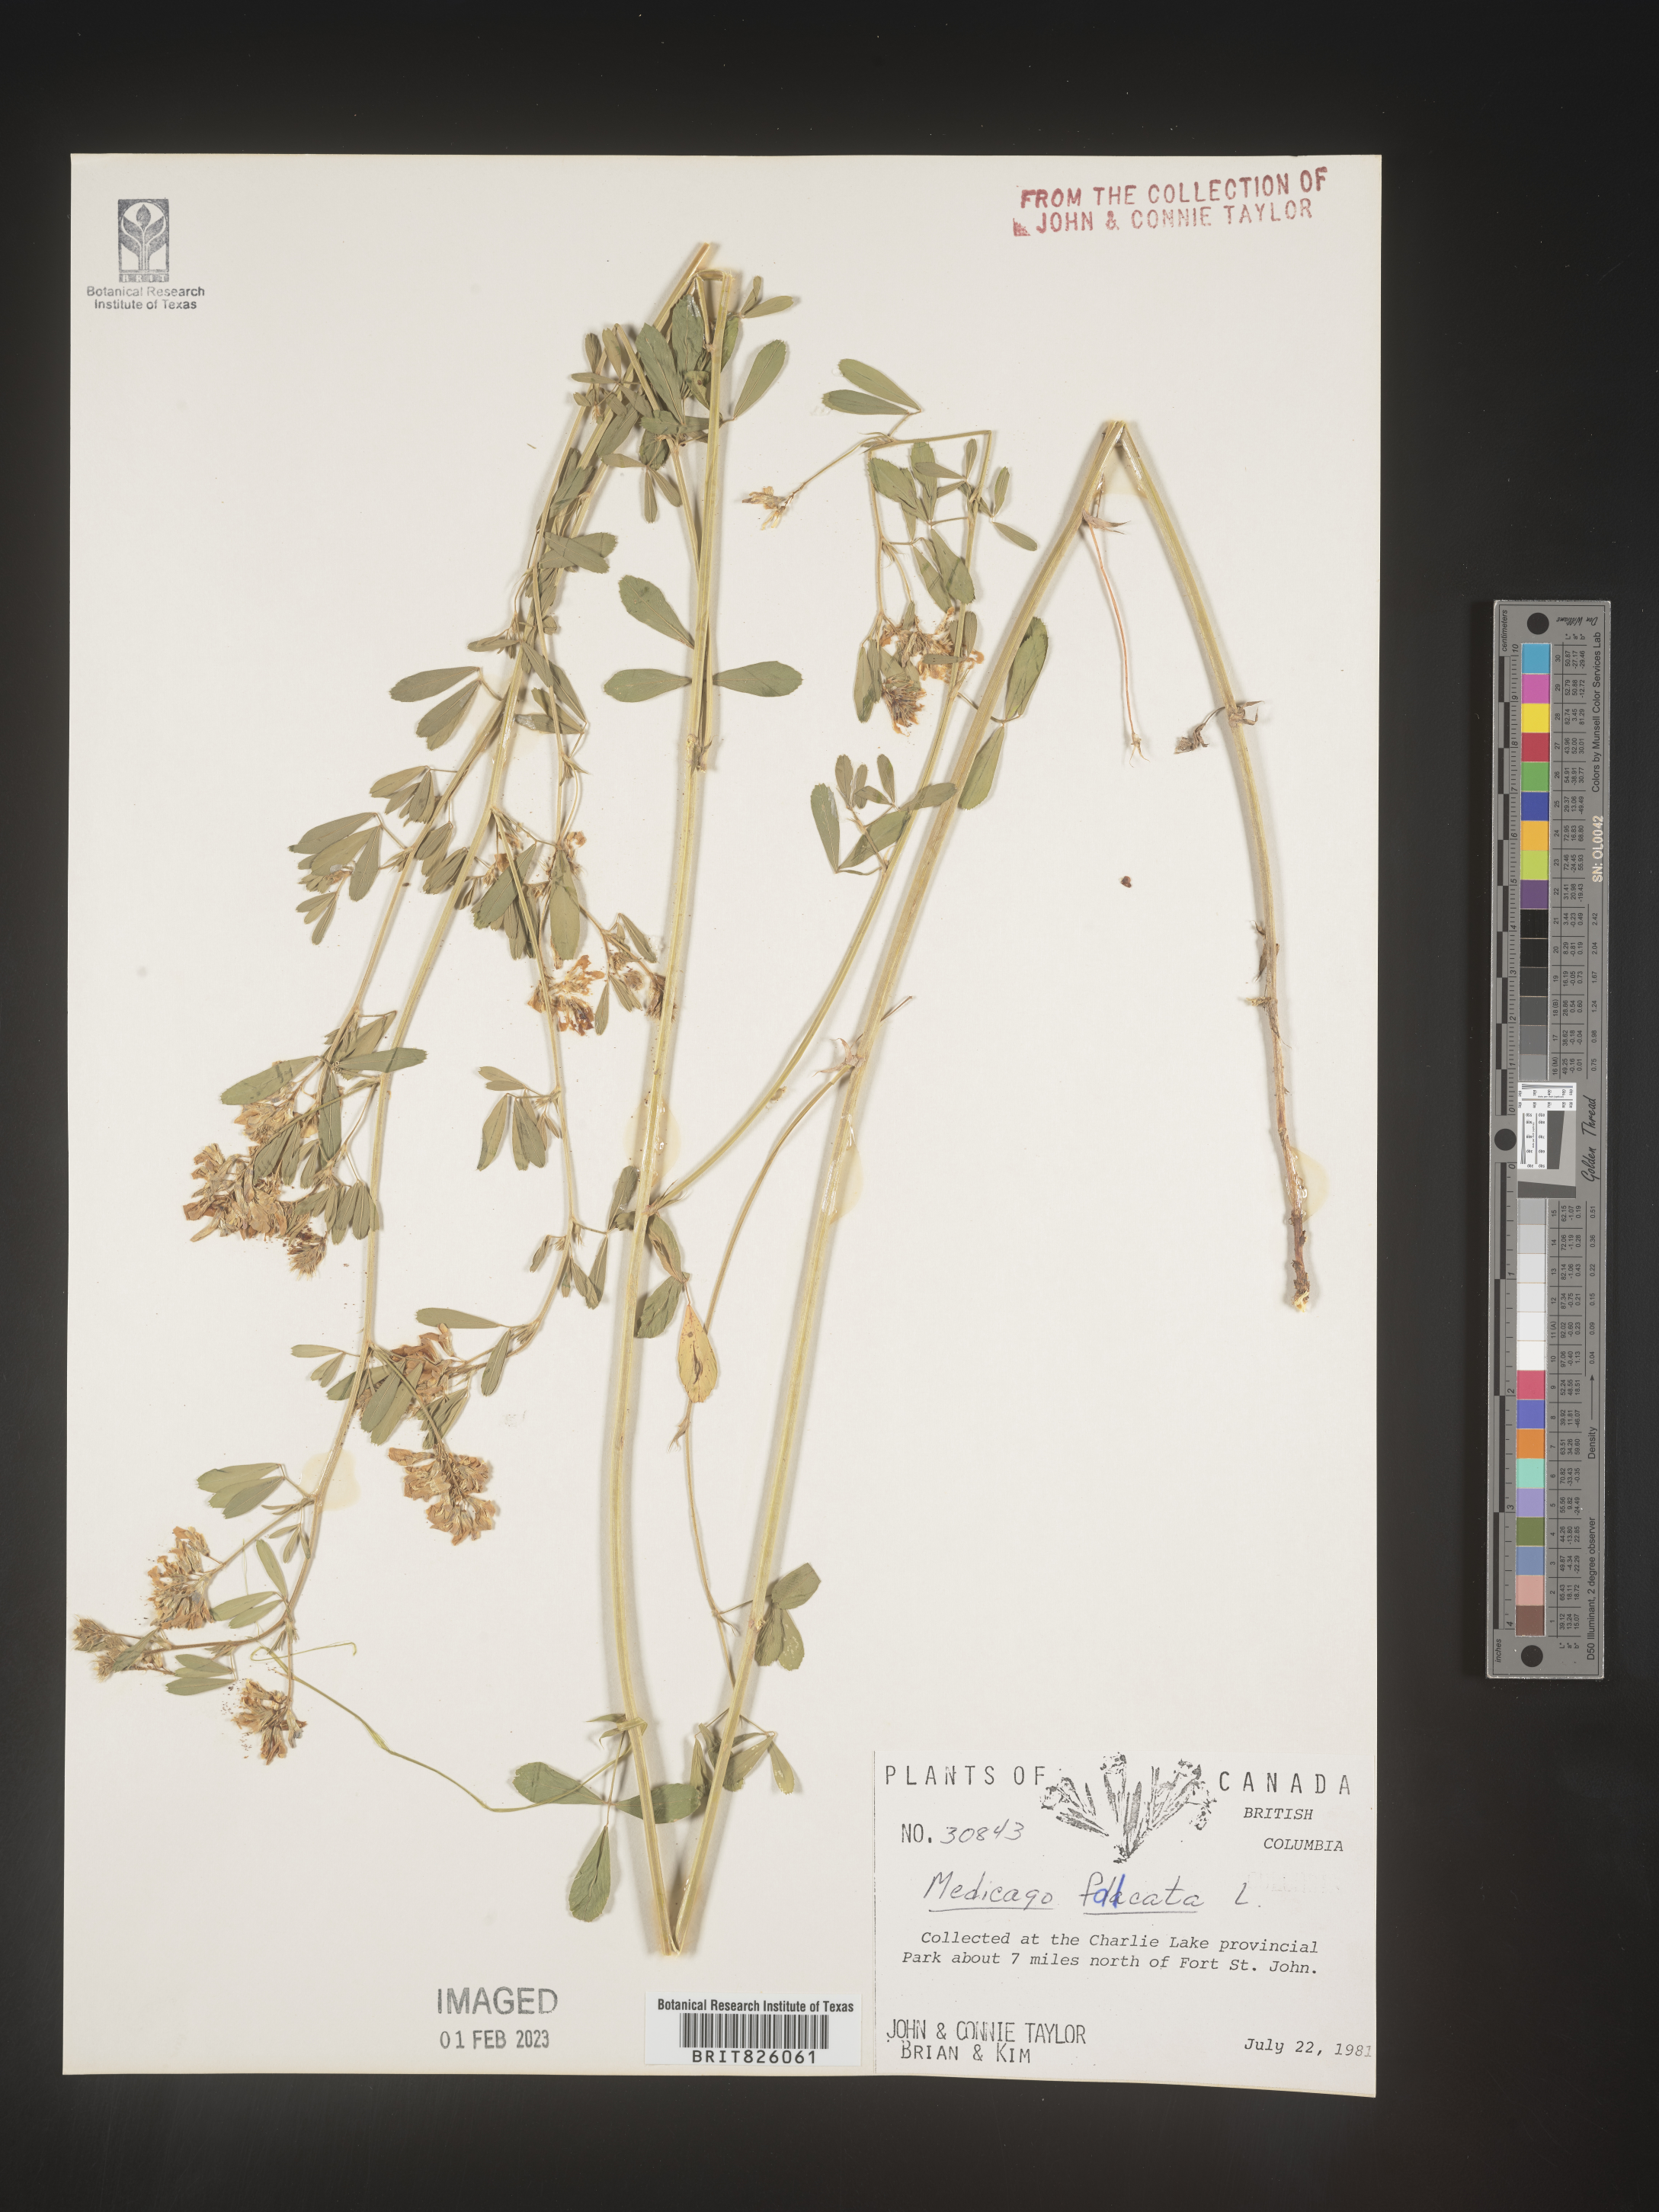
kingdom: Plantae
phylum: Tracheophyta
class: Magnoliopsida
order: Fabales
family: Fabaceae
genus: Medicago
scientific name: Medicago sativa
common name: Alfalfa
